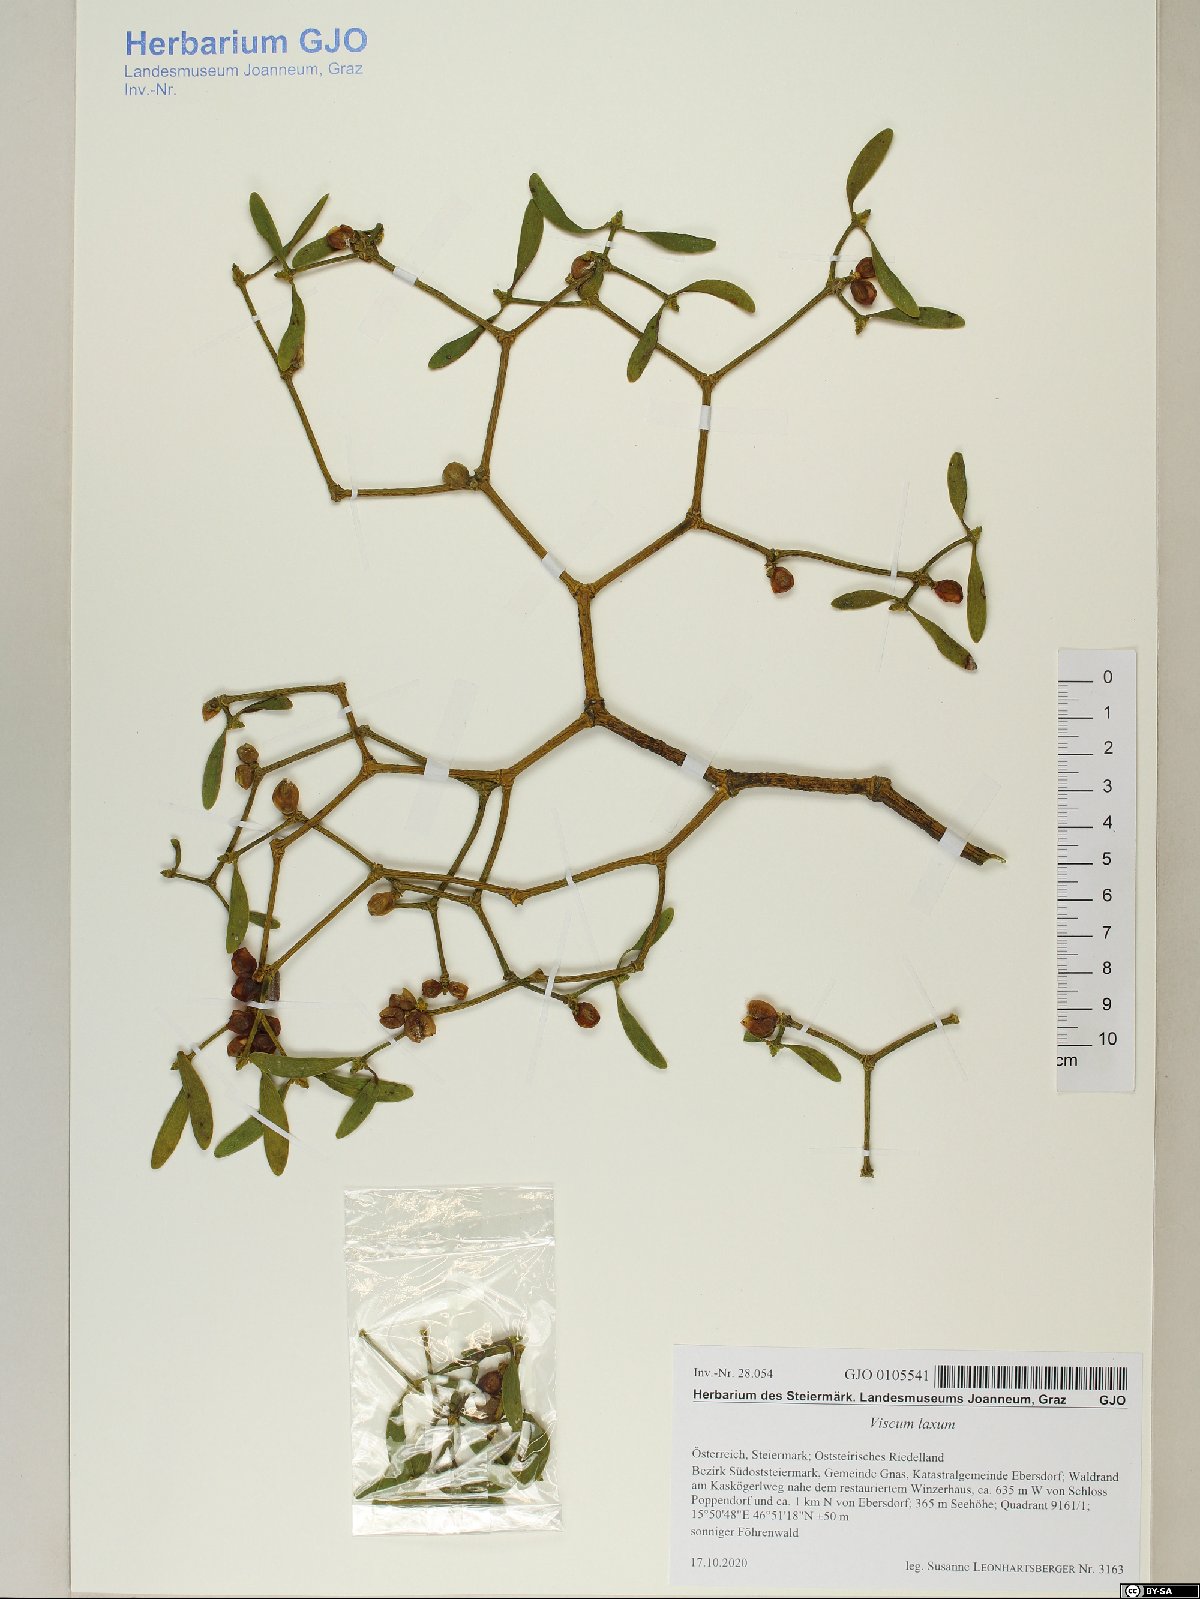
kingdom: Plantae
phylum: Tracheophyta
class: Magnoliopsida
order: Santalales
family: Viscaceae
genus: Viscum
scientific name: Viscum laxum
